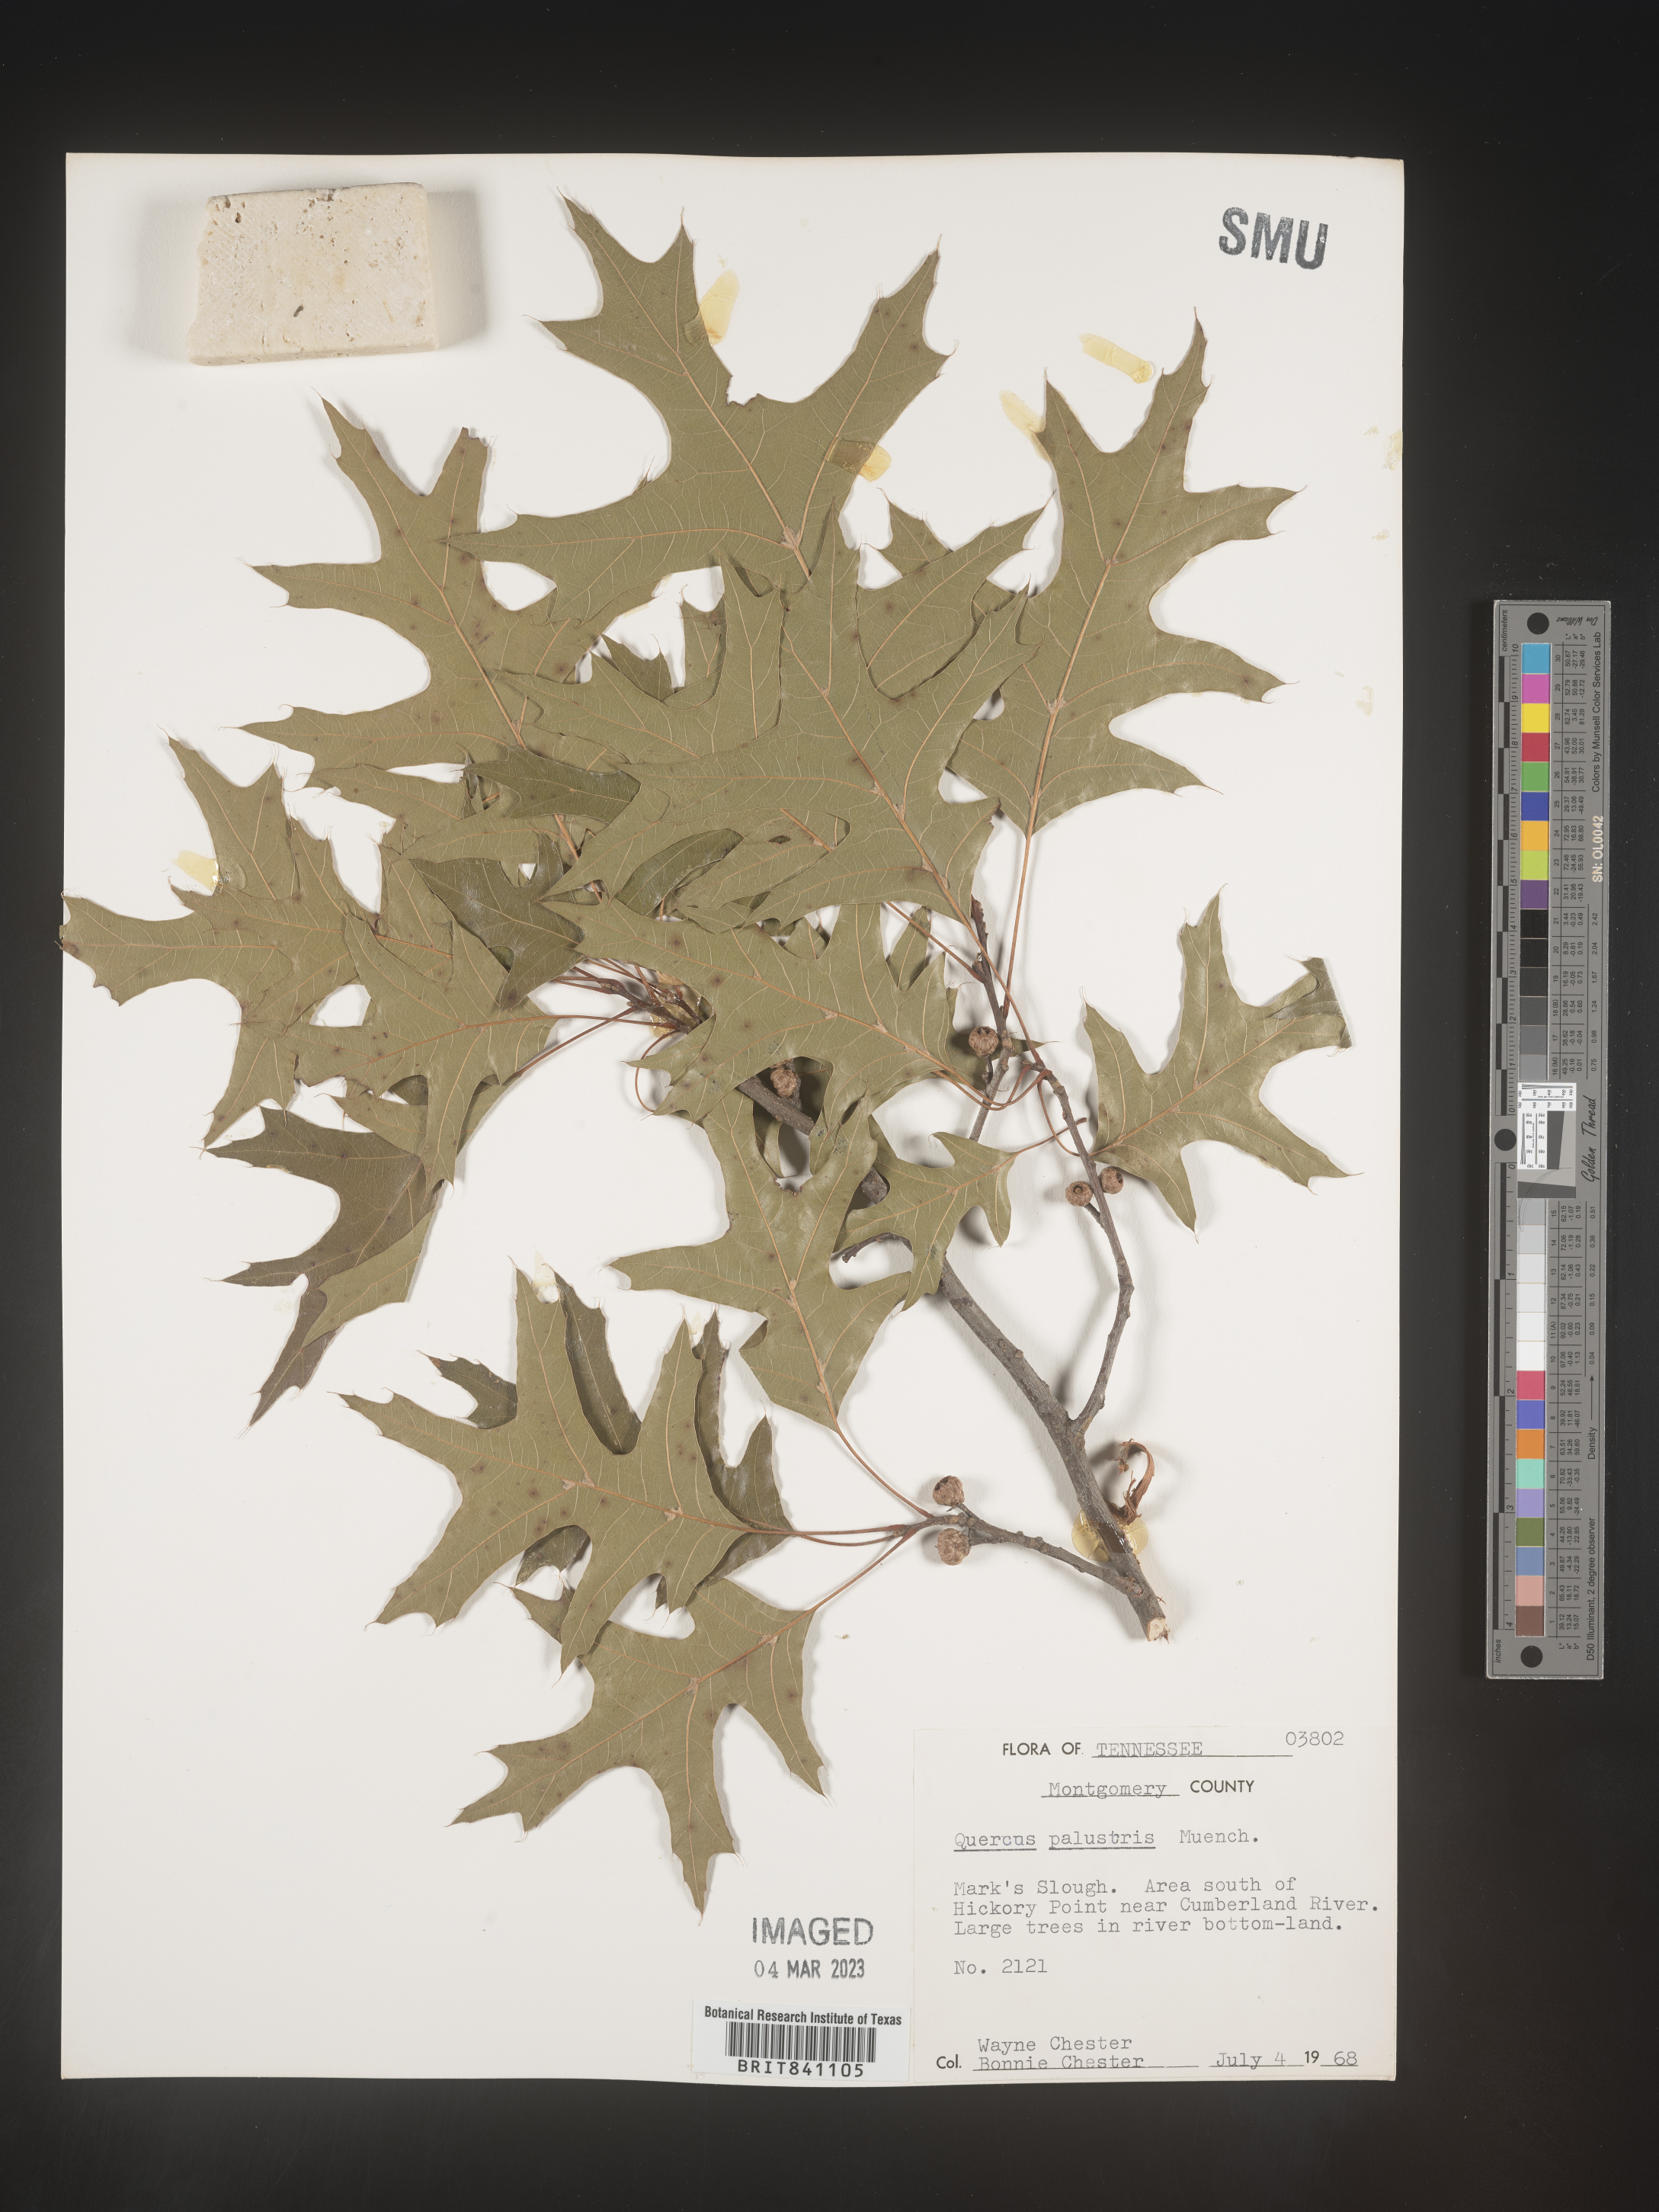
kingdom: Plantae
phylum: Tracheophyta
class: Magnoliopsida
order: Fagales
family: Fagaceae
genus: Quercus
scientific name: Quercus palustris
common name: Pin oak
